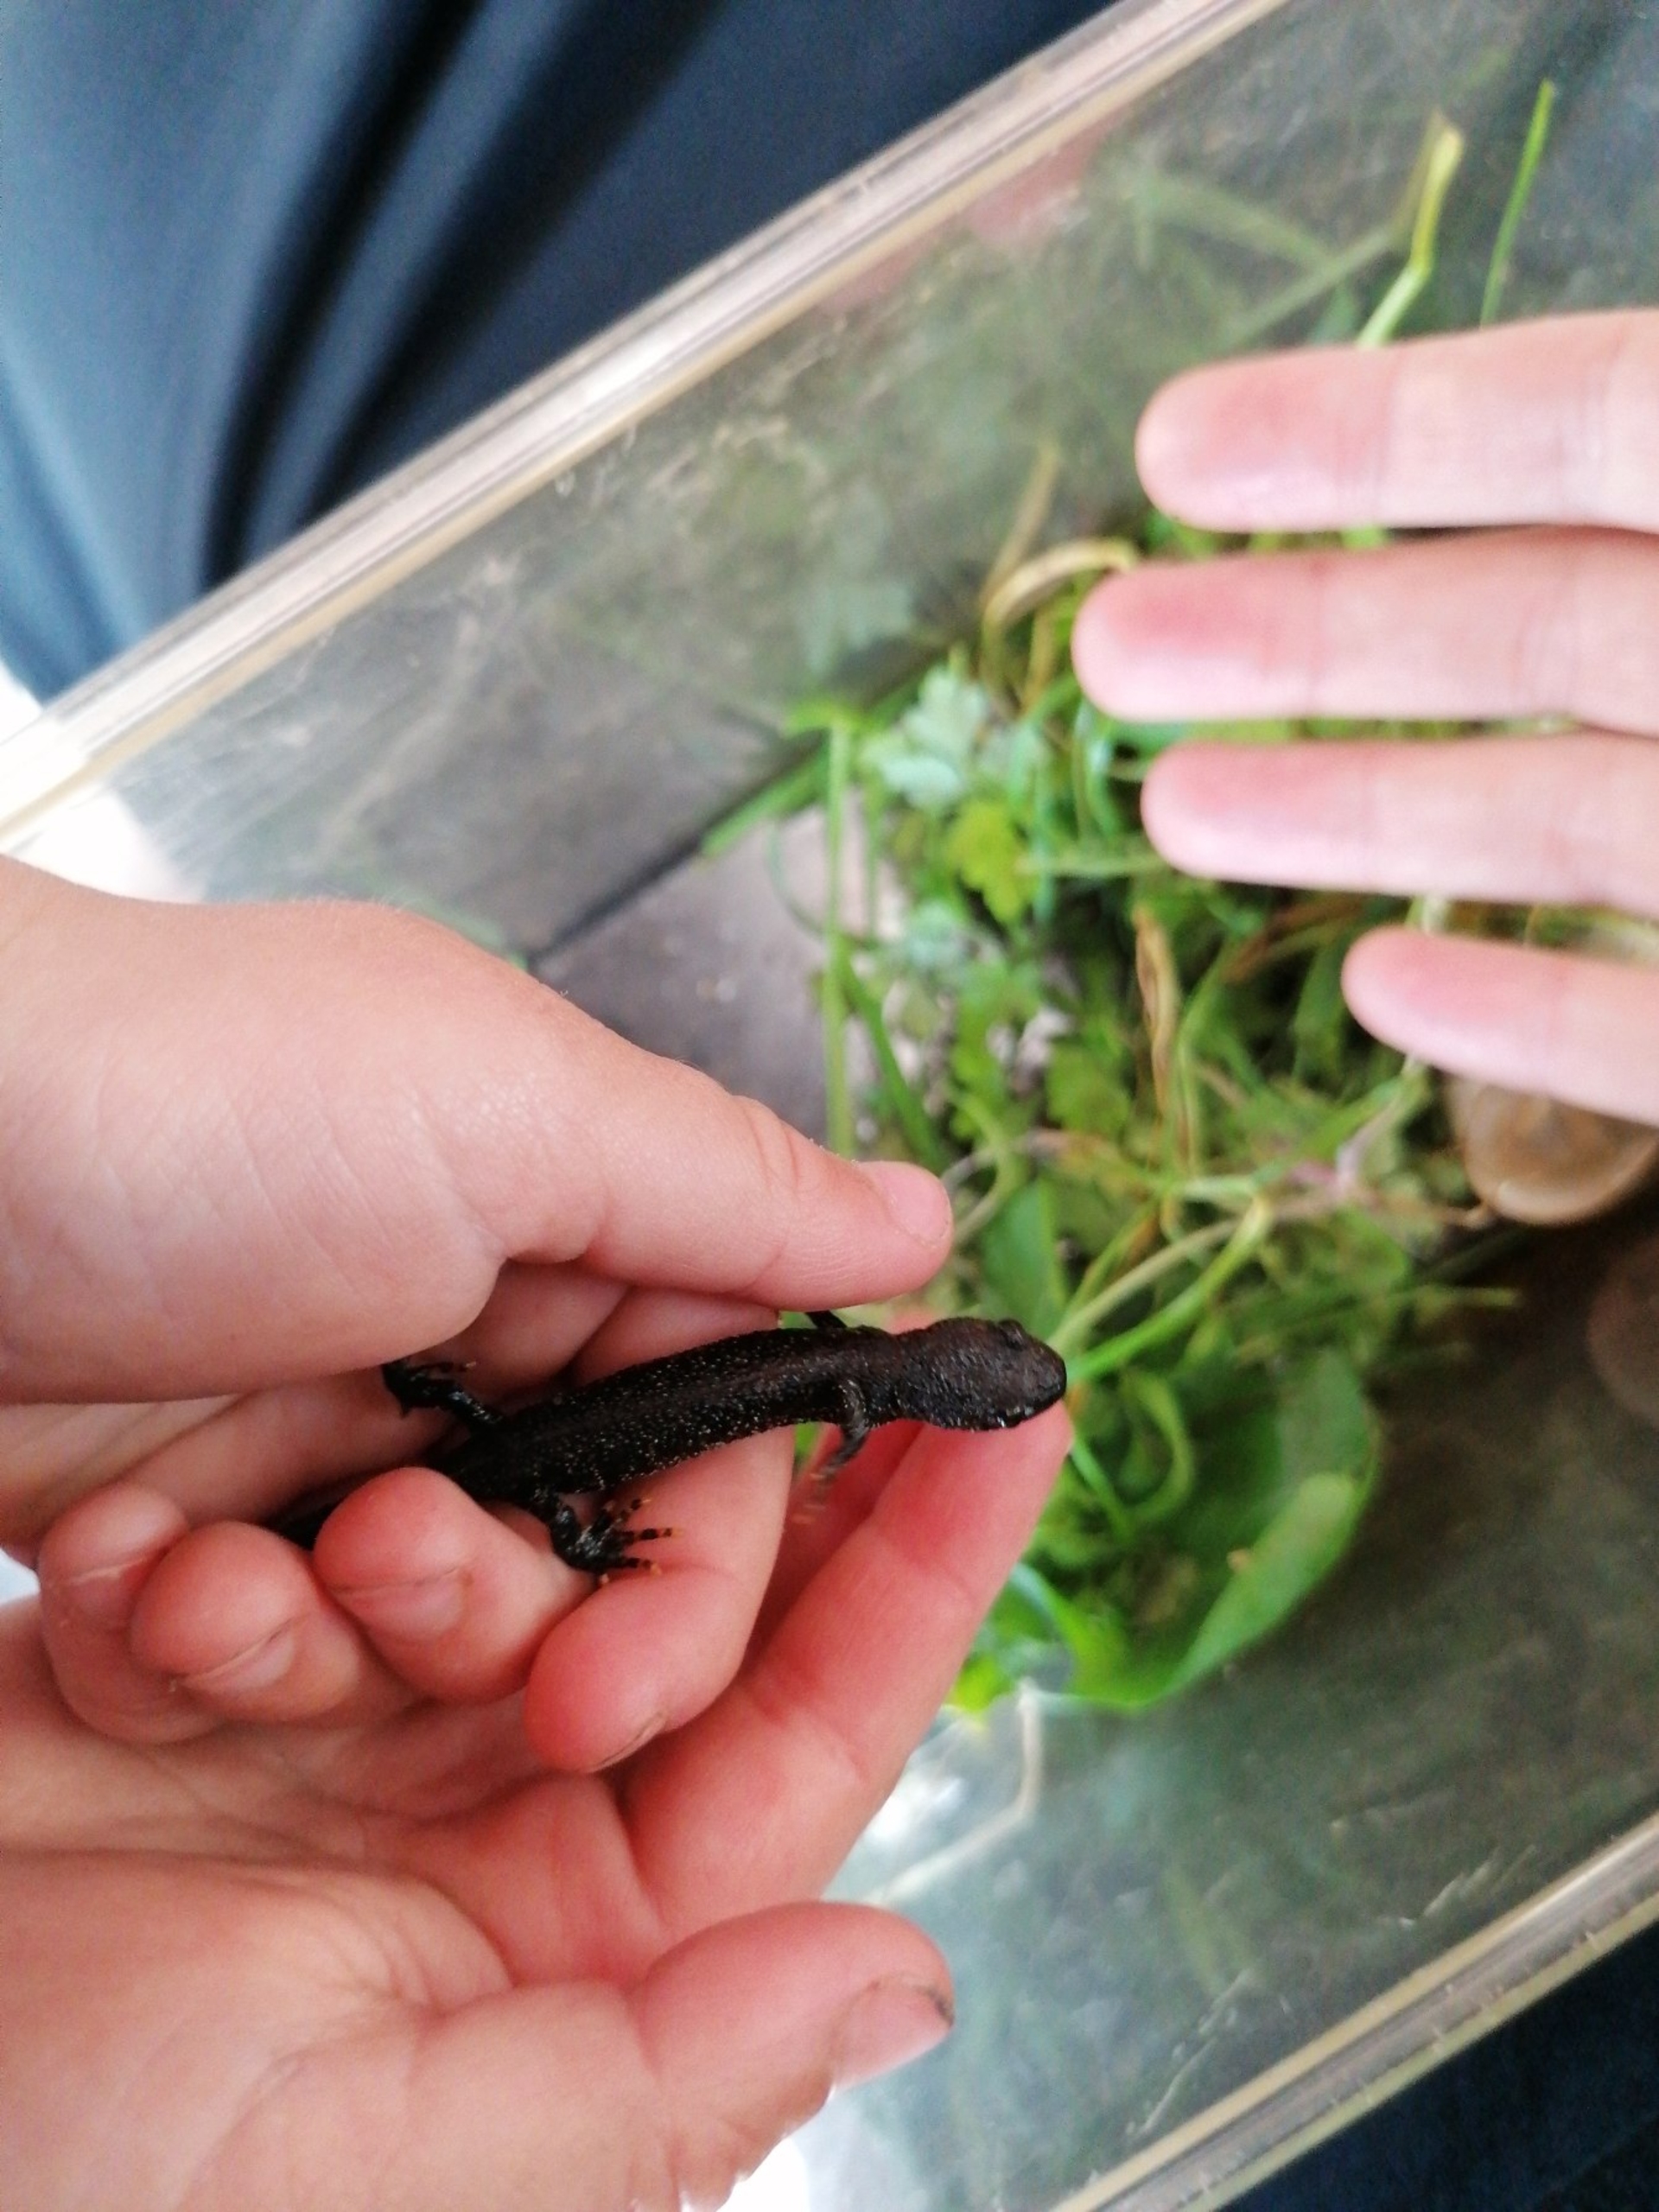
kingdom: Animalia
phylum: Chordata
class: Amphibia
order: Caudata
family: Salamandridae
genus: Triturus
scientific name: Triturus cristatus
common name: Stor vandsalamander
